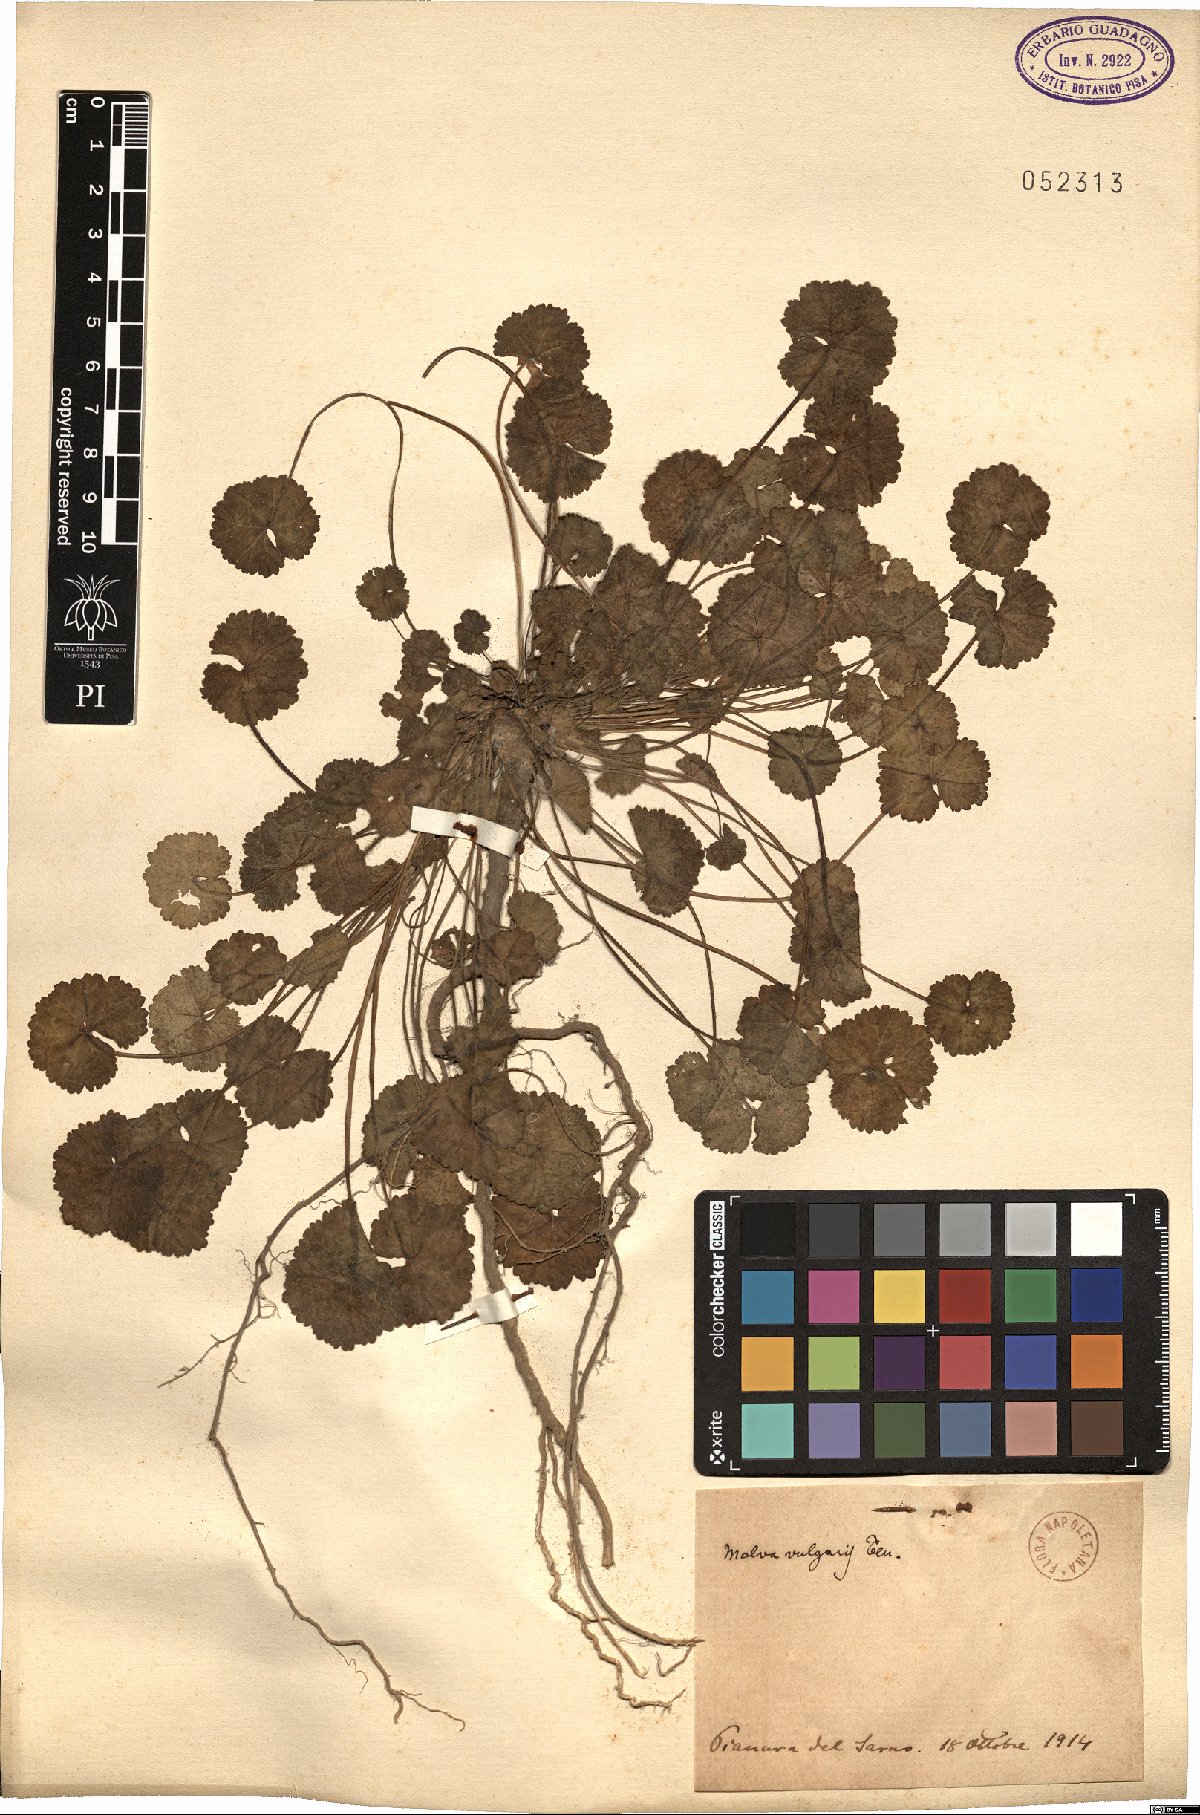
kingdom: Plantae
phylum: Tracheophyta
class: Magnoliopsida
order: Malvales
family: Malvaceae
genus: Malva
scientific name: Malva neglecta
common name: Common mallow
